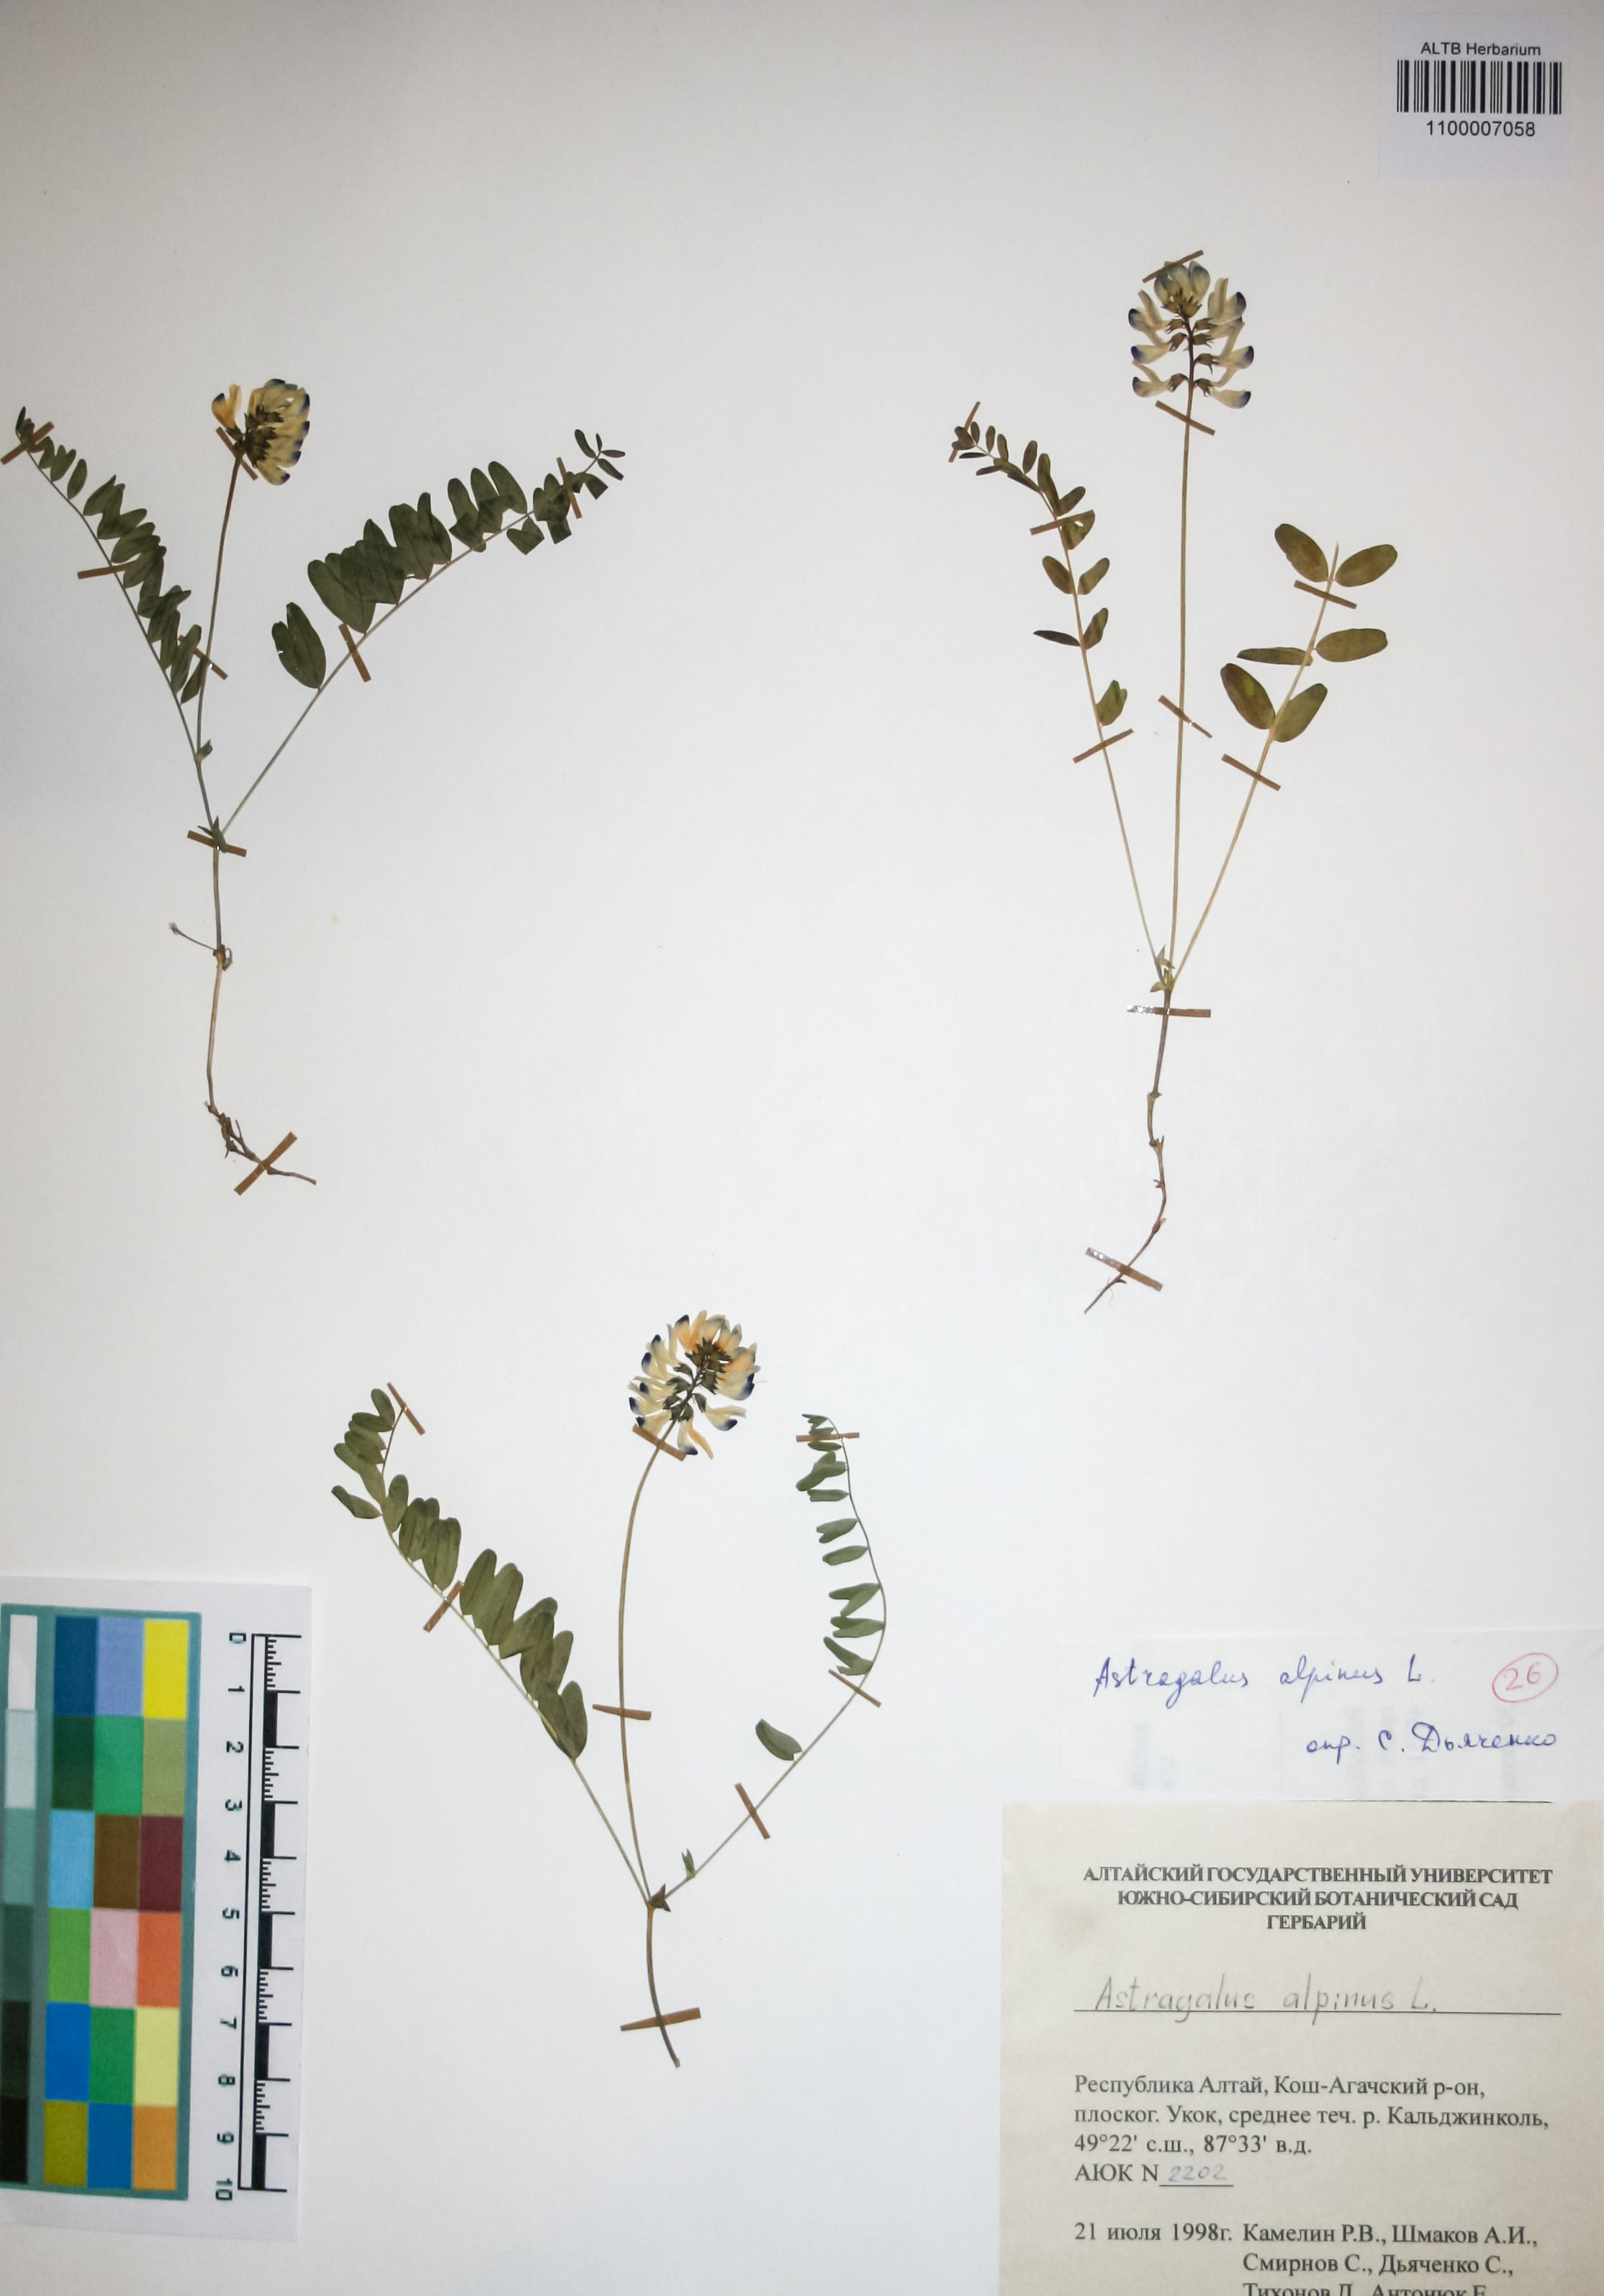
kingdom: Plantae
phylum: Tracheophyta
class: Magnoliopsida
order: Fabales
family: Fabaceae
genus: Astragalus
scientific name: Astragalus alpinus
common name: Alpine milk-vetch
